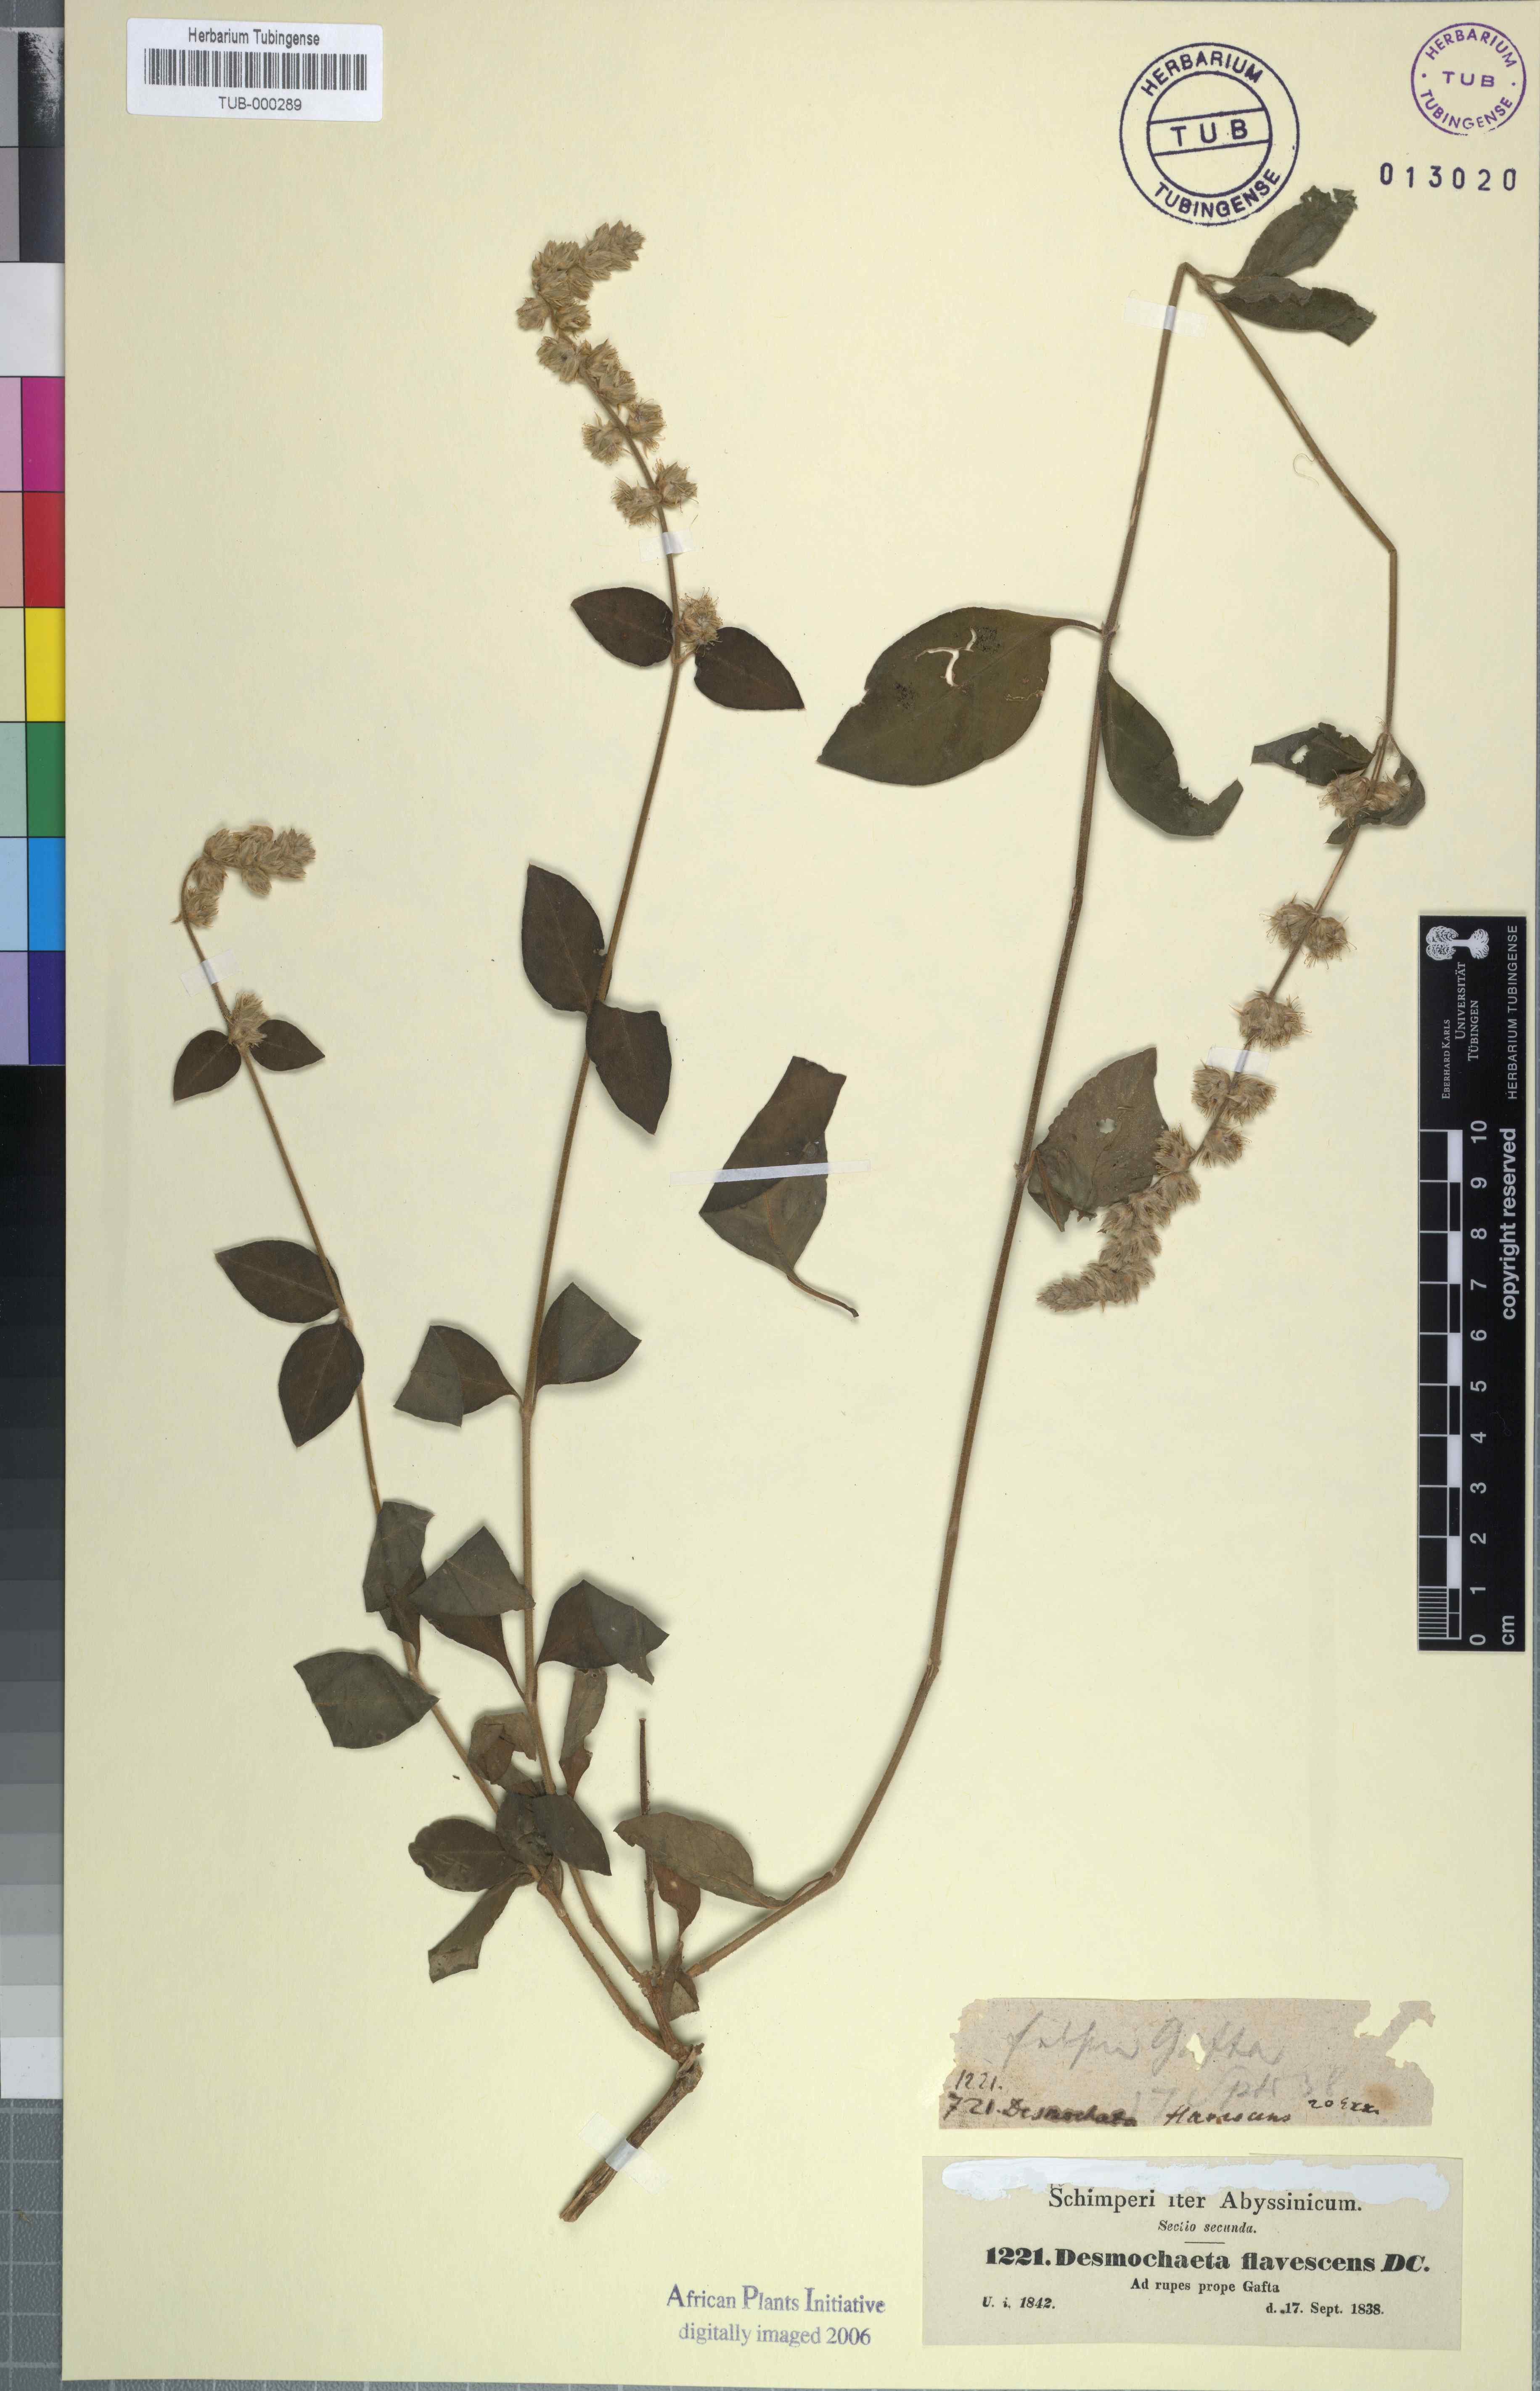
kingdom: Plantae
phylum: Tracheophyta
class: Magnoliopsida
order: Caryophyllales
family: Amaranthaceae
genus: Pupalia
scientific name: Pupalia lappacea
